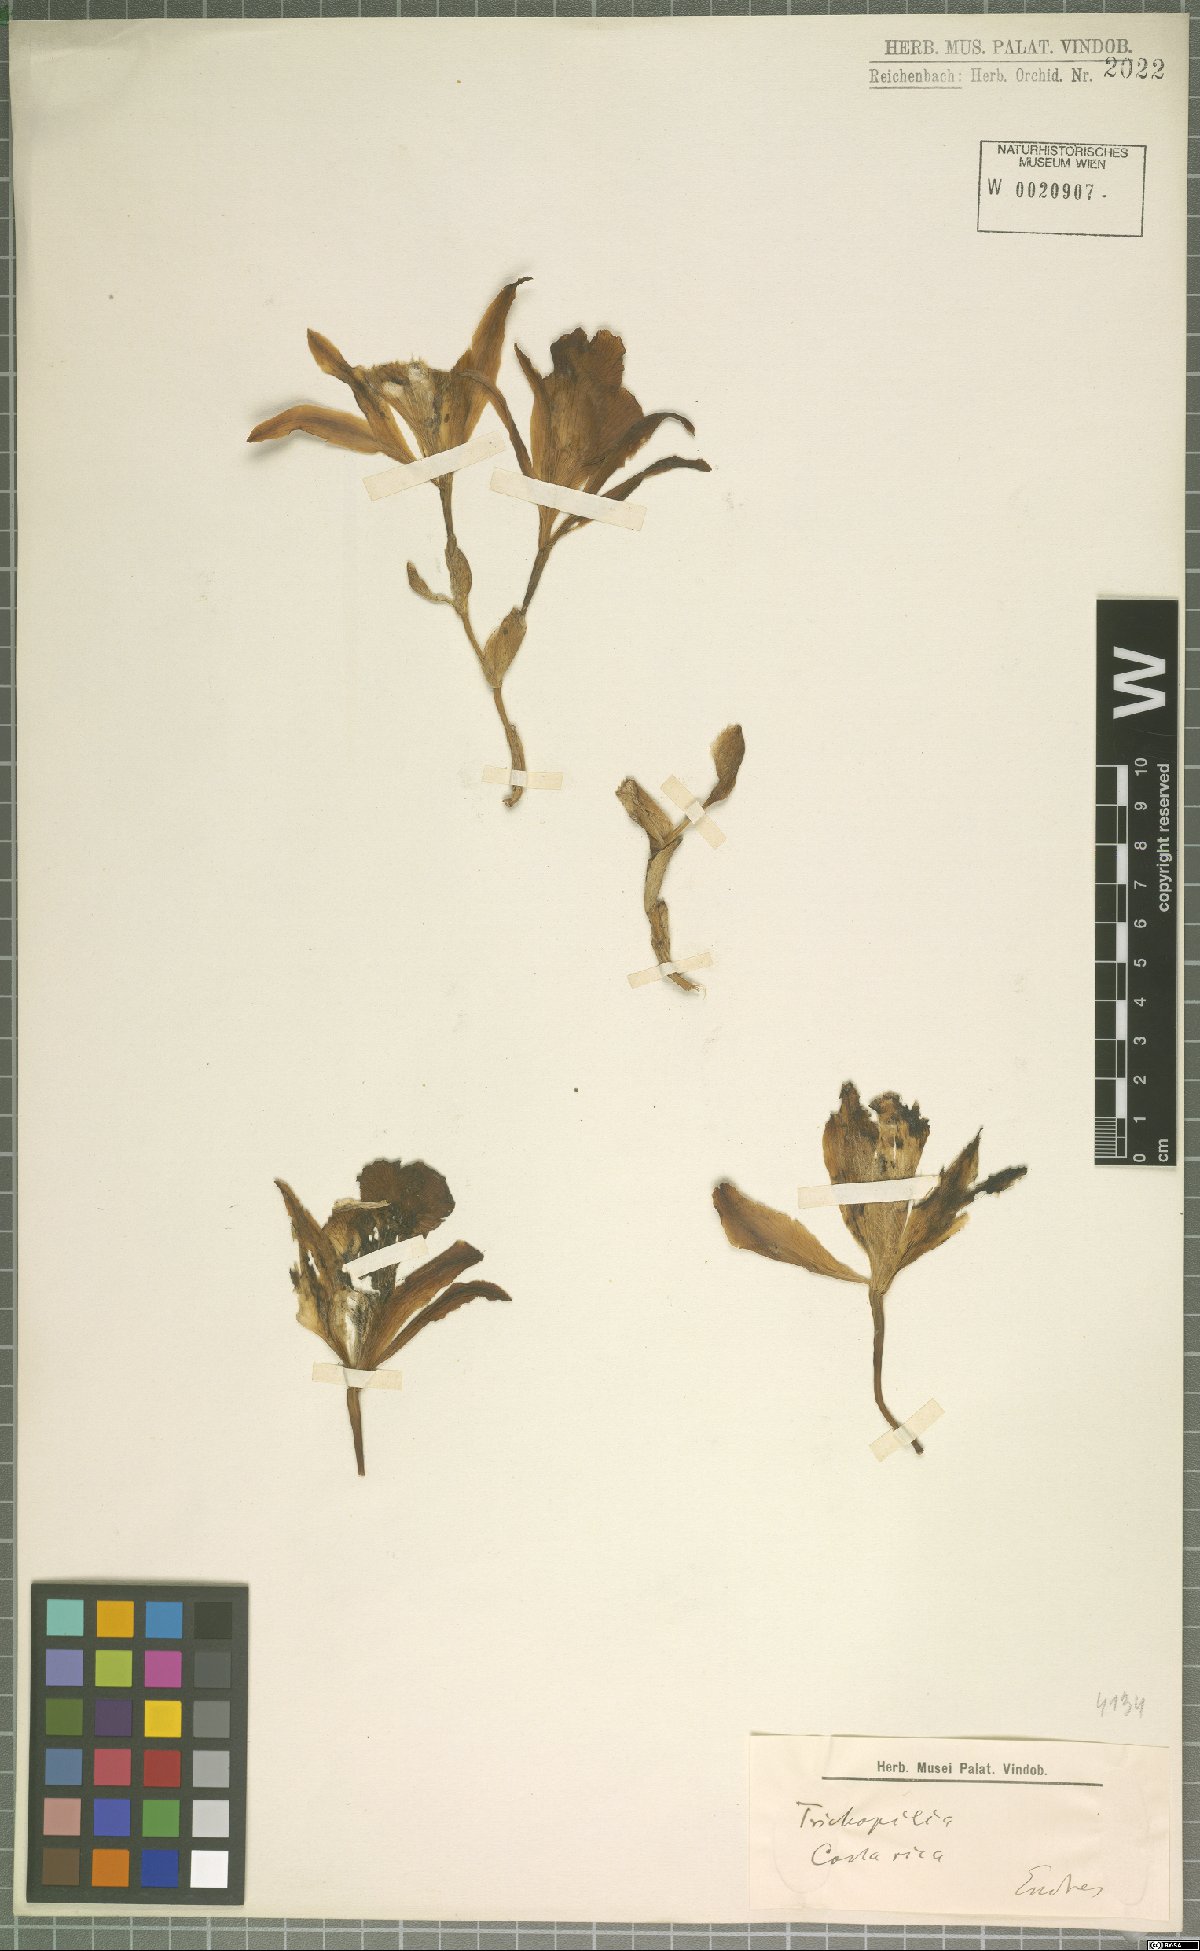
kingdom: Plantae
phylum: Tracheophyta
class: Liliopsida
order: Asparagales
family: Orchidaceae
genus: Trichopilia
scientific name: Trichopilia
